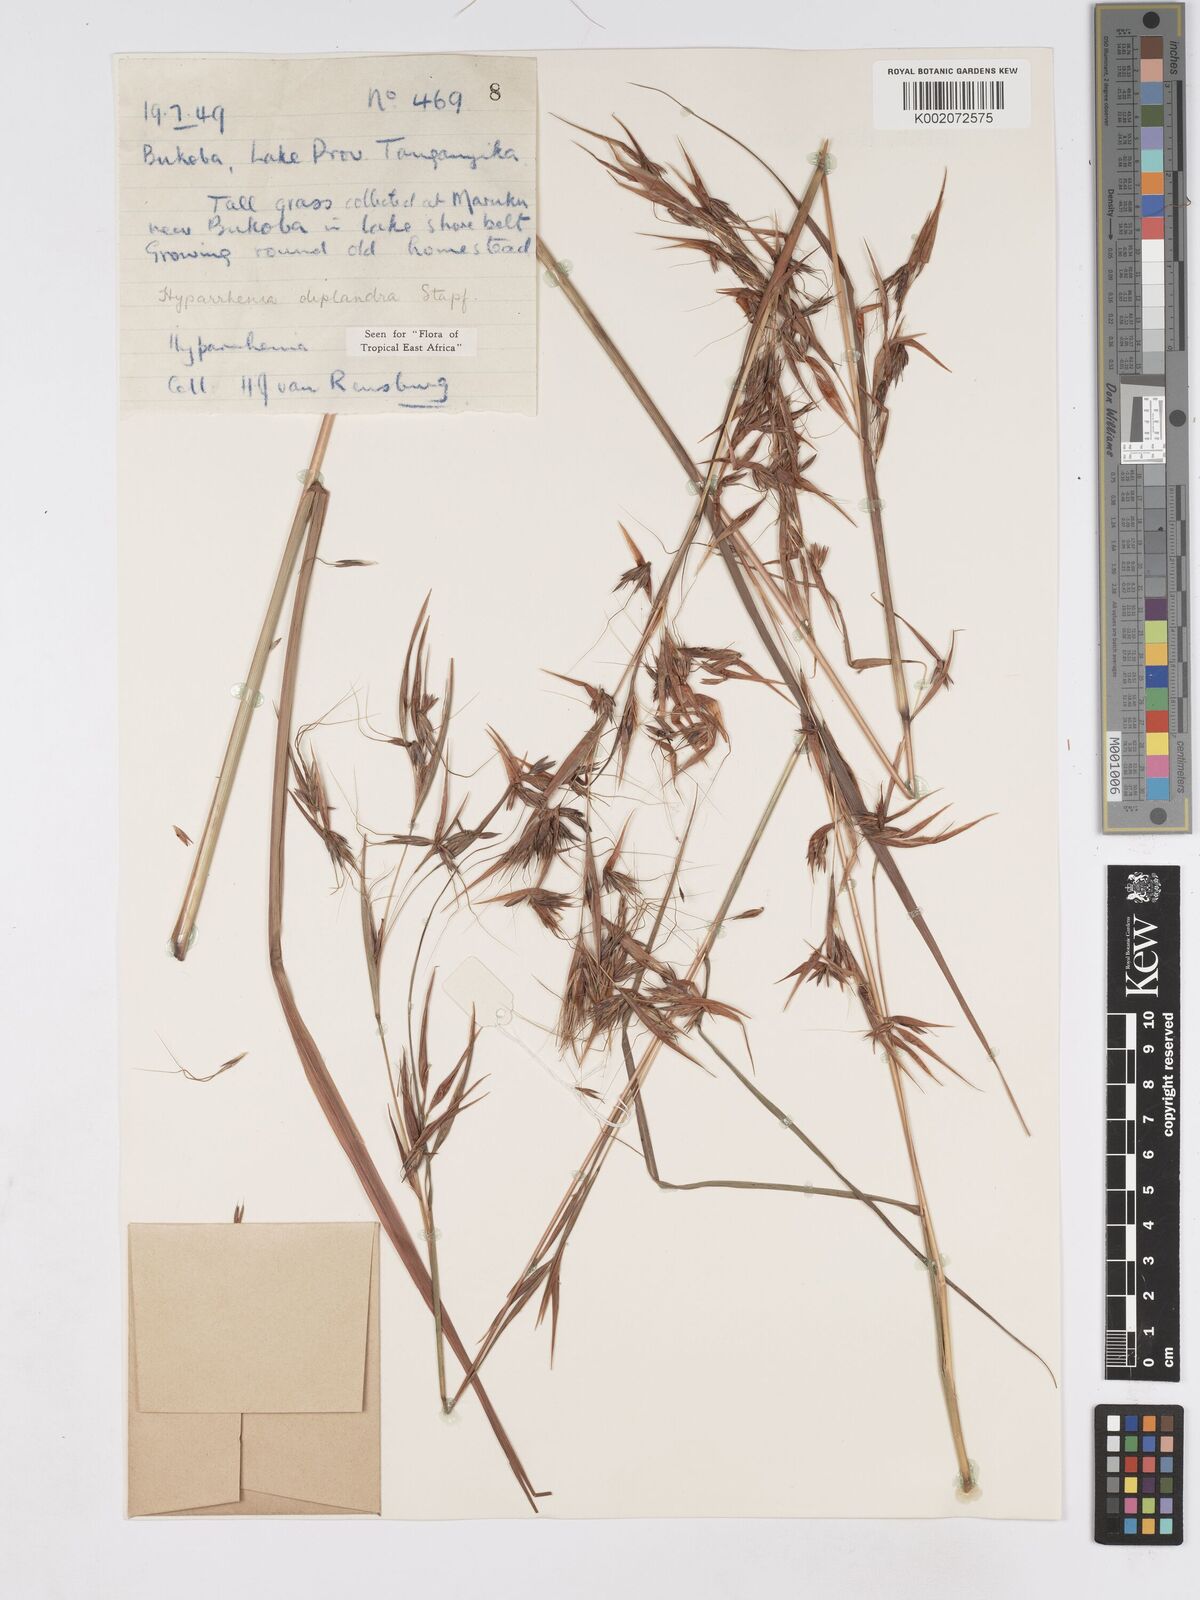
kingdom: Plantae
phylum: Tracheophyta
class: Liliopsida
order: Poales
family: Poaceae
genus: Hyparrhenia
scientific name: Hyparrhenia diplandra
